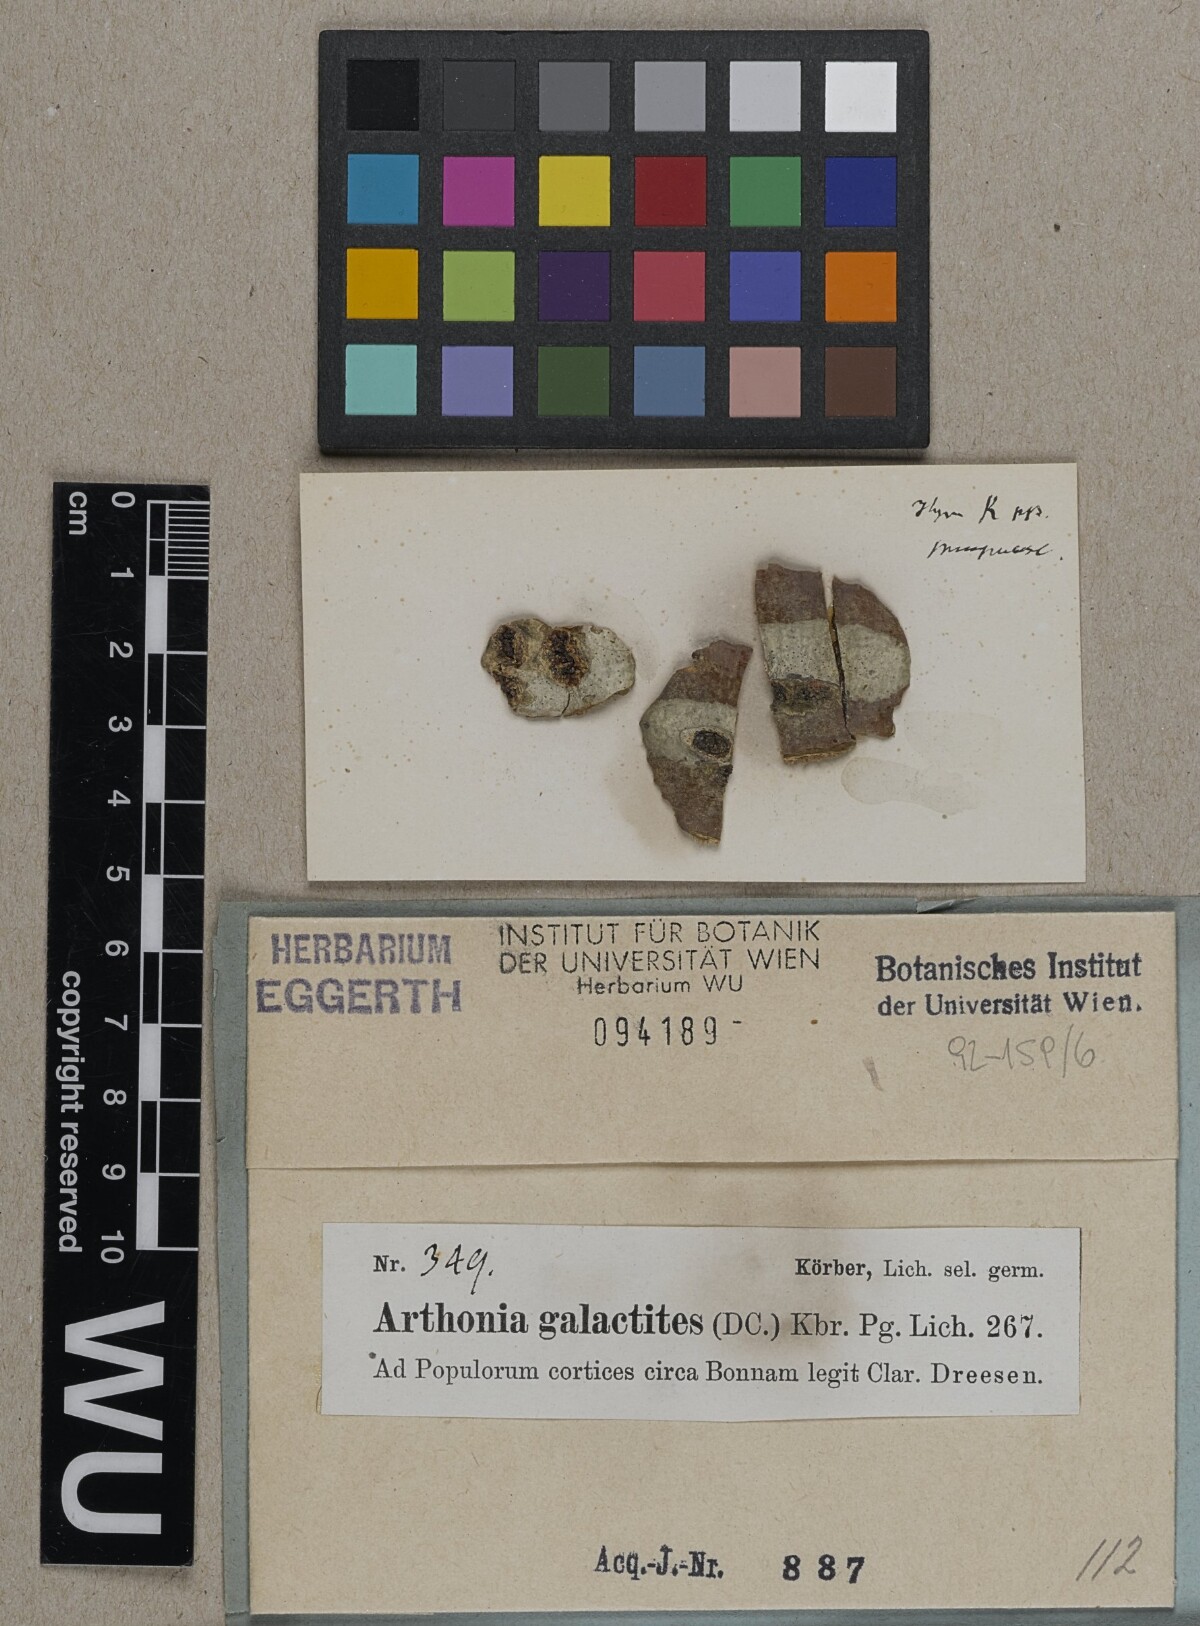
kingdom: Fungi
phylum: Ascomycota
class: Arthoniomycetes
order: Arthoniales
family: Arthoniaceae
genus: Arthonia
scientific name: Arthonia galactites
